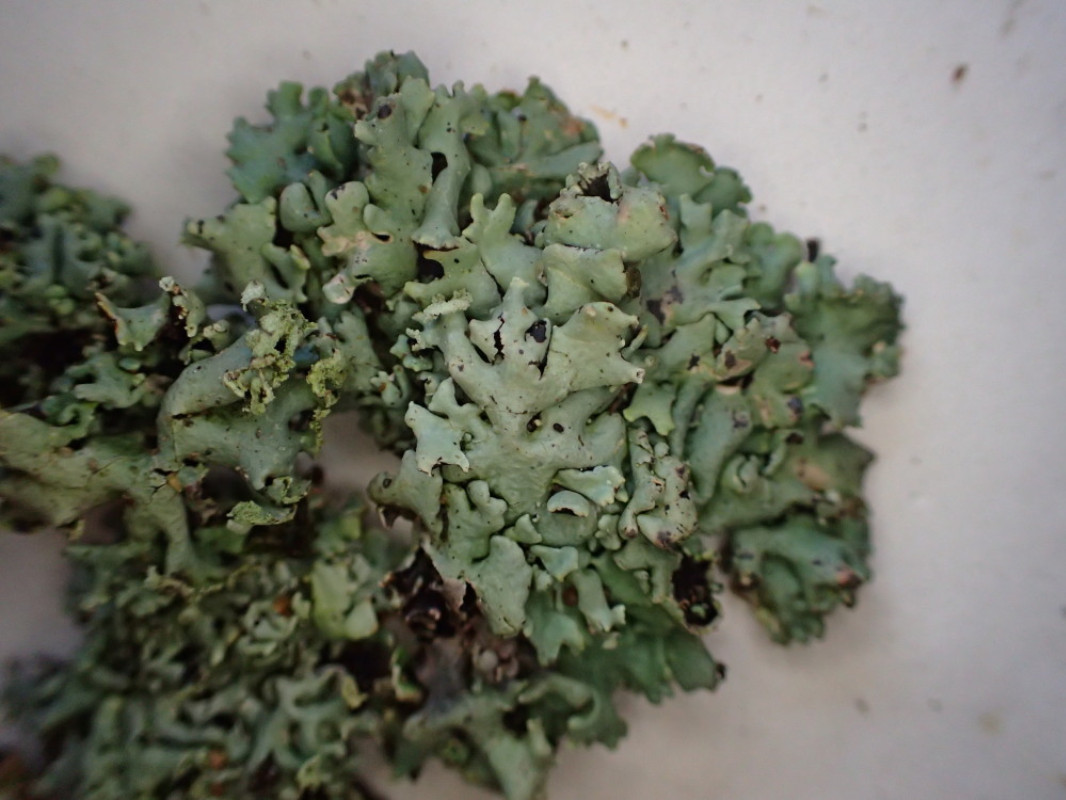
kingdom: Fungi
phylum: Ascomycota
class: Lecanoromycetes
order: Lecanorales
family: Parmeliaceae
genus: Hypogymnia
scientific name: Hypogymnia physodes
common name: almindelig kvistlav
